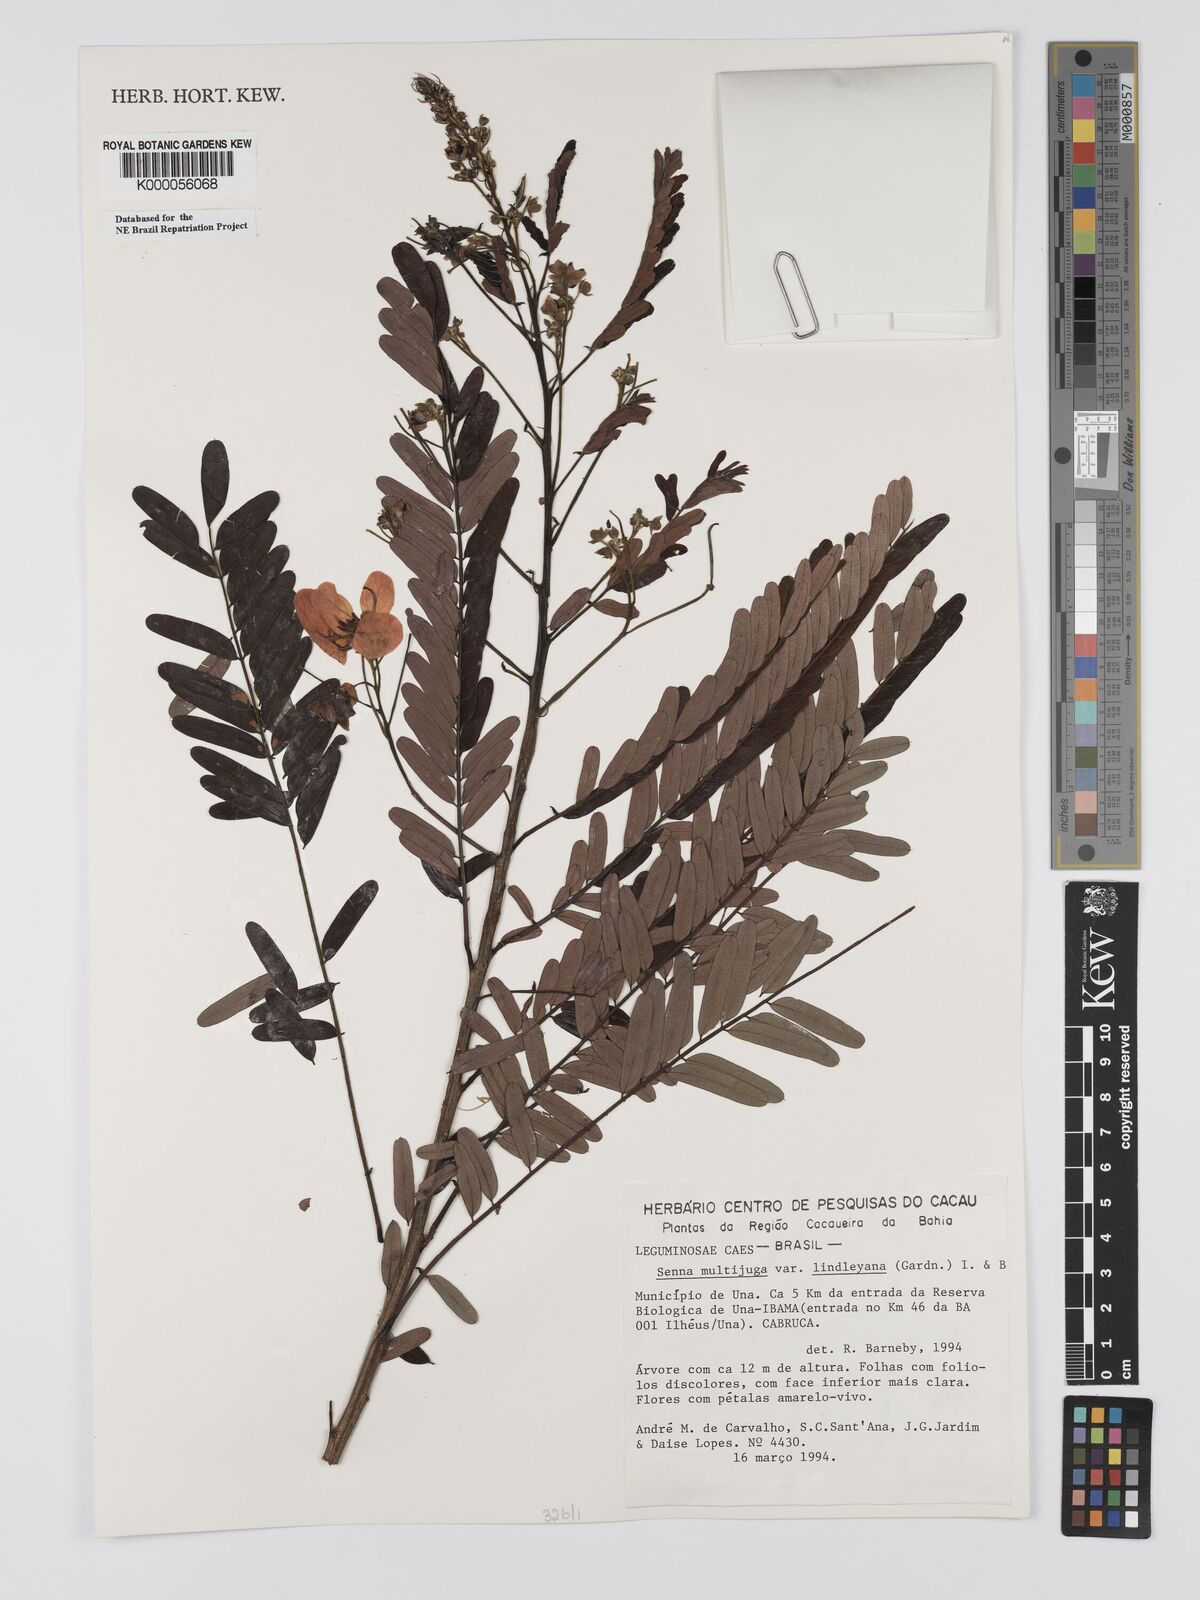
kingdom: Plantae
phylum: Tracheophyta
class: Magnoliopsida
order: Fabales
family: Fabaceae
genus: Senna
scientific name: Senna multijuga
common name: False sicklepod
